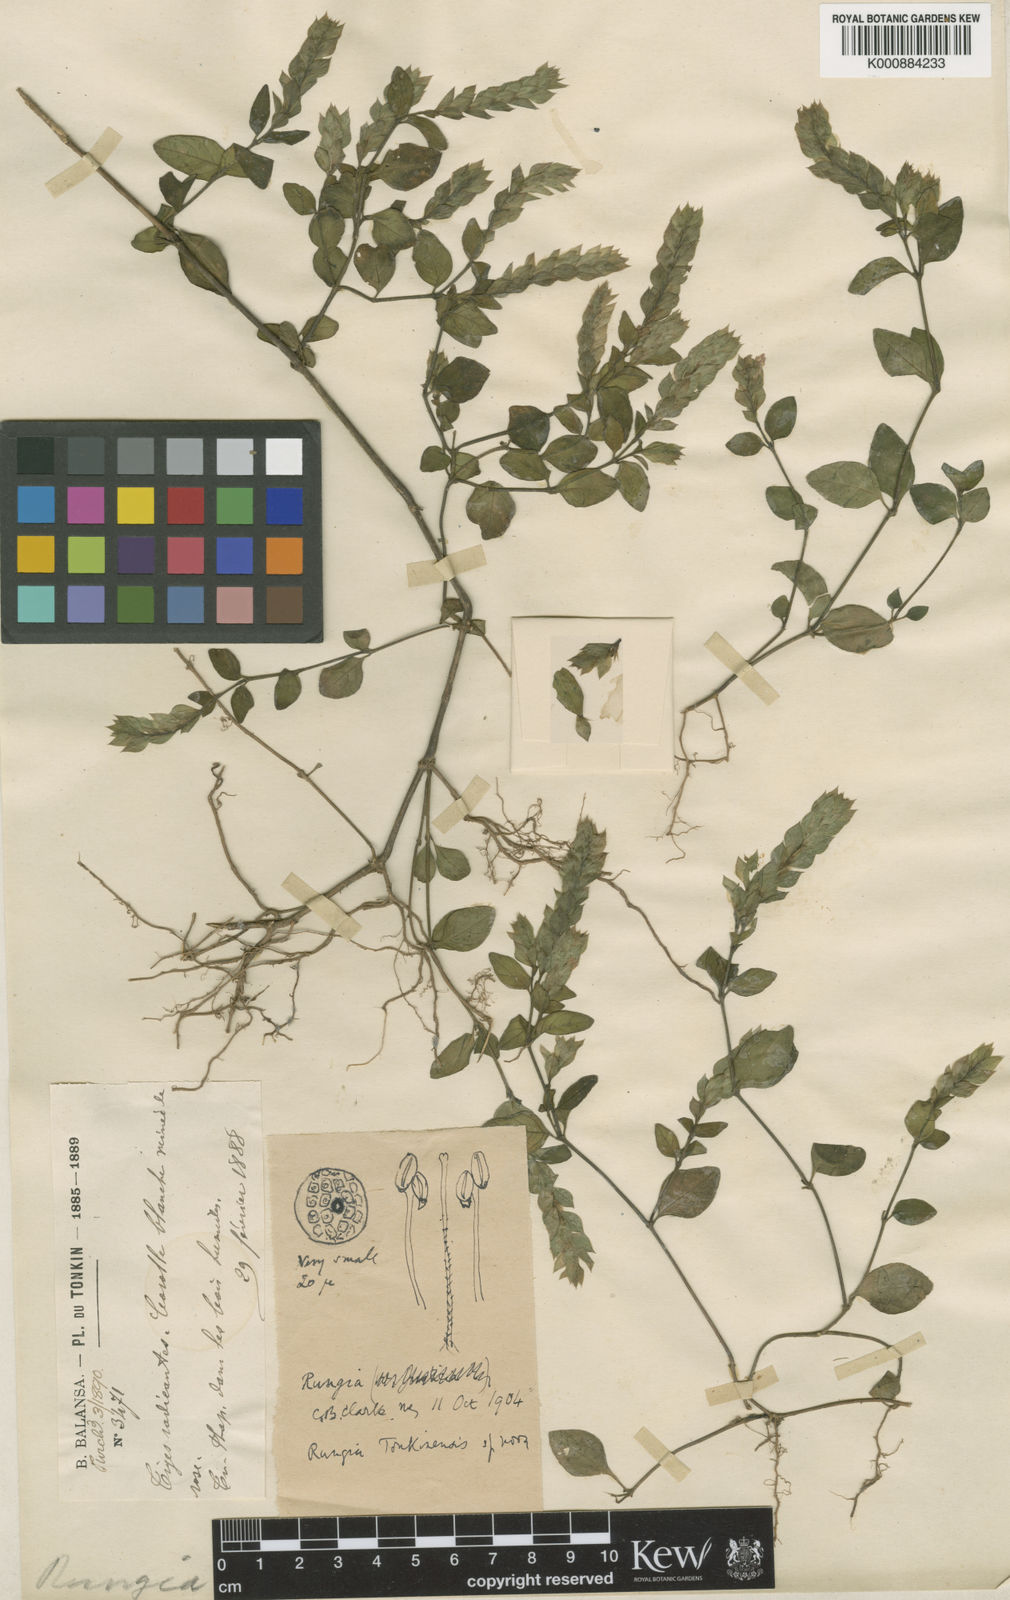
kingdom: Plantae
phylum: Tracheophyta
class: Magnoliopsida
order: Lamiales
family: Acanthaceae
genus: Justicia
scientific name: Justicia
